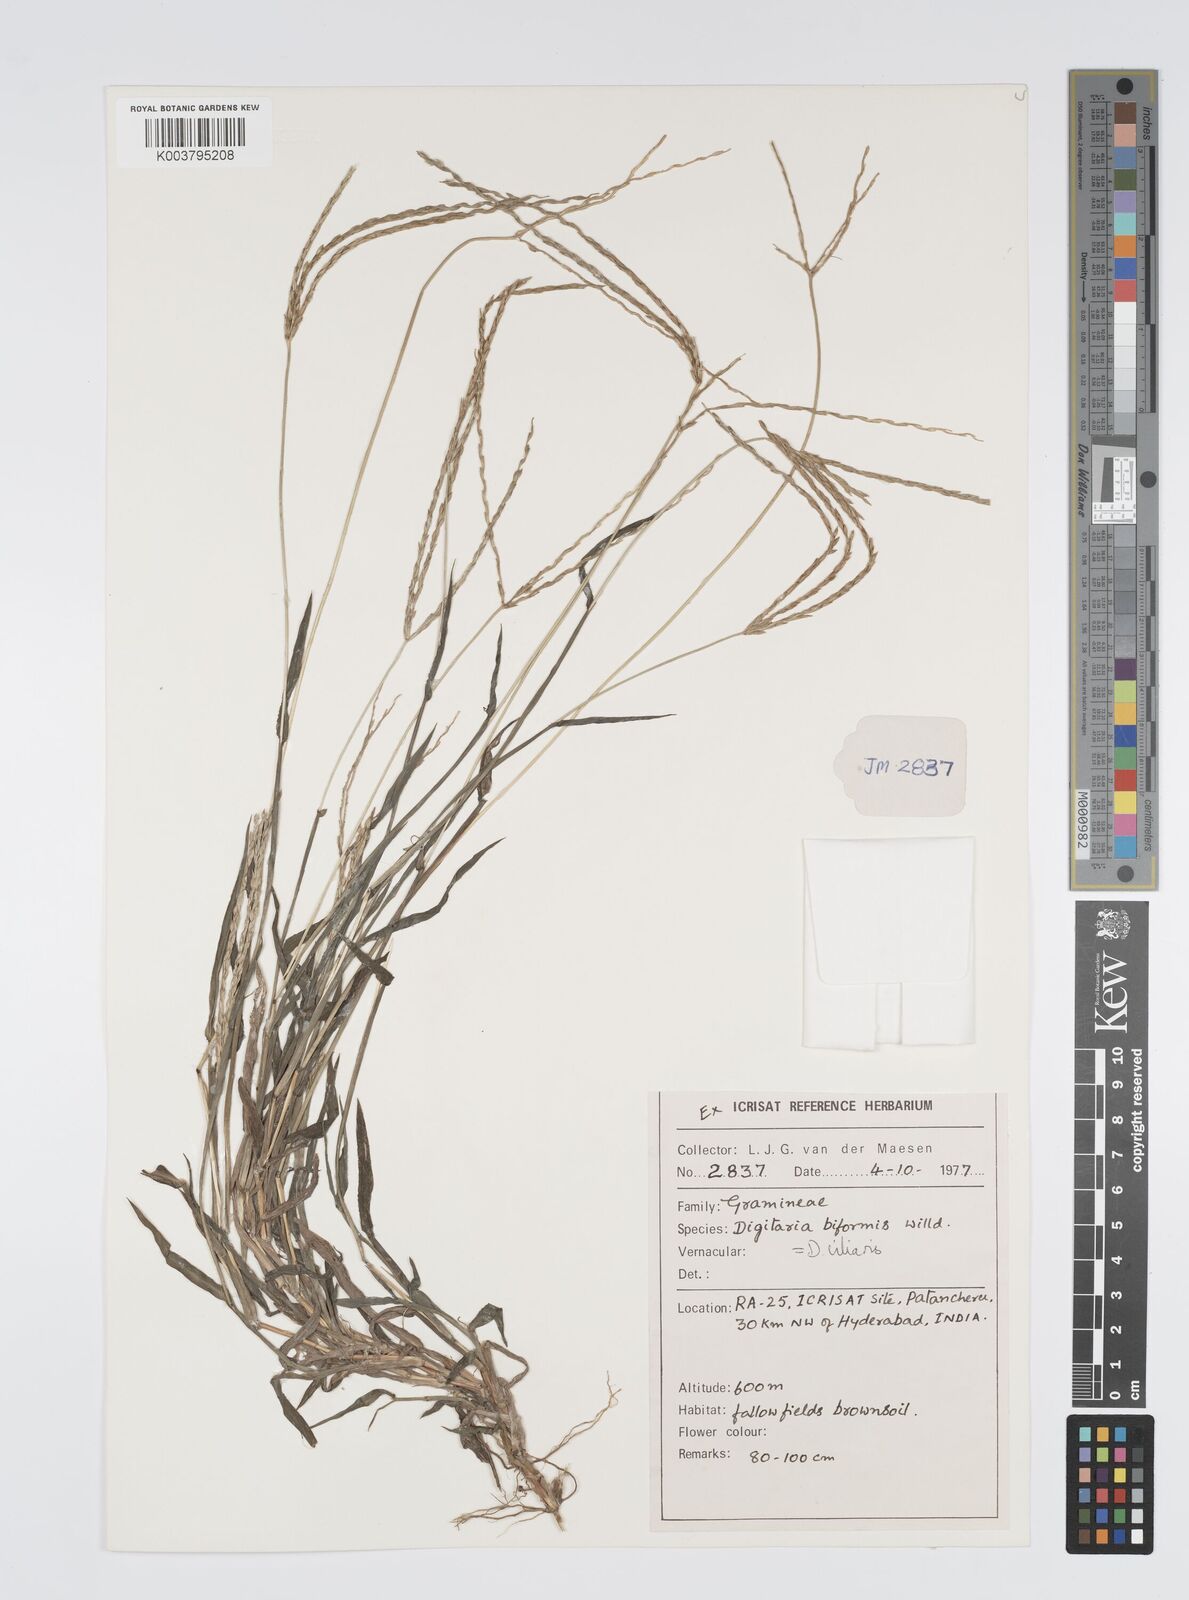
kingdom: Plantae
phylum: Tracheophyta
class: Liliopsida
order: Poales
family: Poaceae
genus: Digitaria
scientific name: Digitaria ciliaris
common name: Tropical finger-grass
